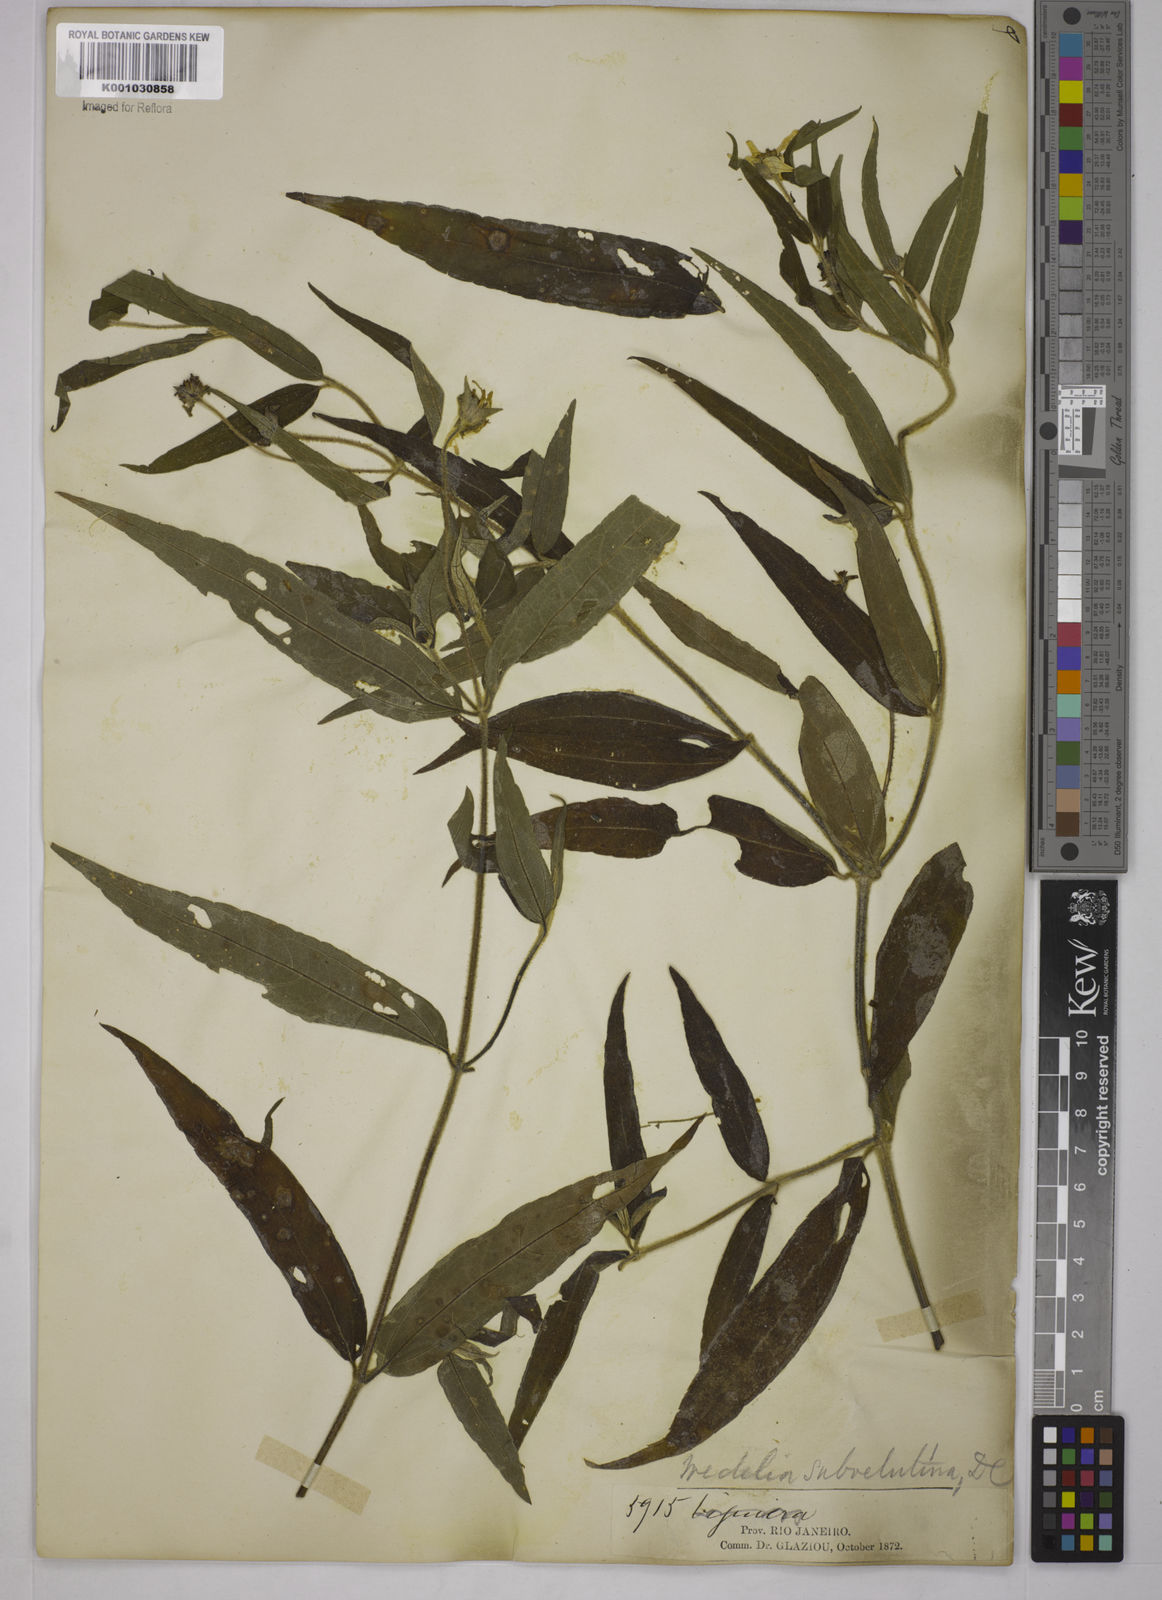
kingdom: Plantae
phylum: Tracheophyta
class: Magnoliopsida
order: Asterales
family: Asteraceae
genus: Wedelia
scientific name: Wedelia subvelutina
